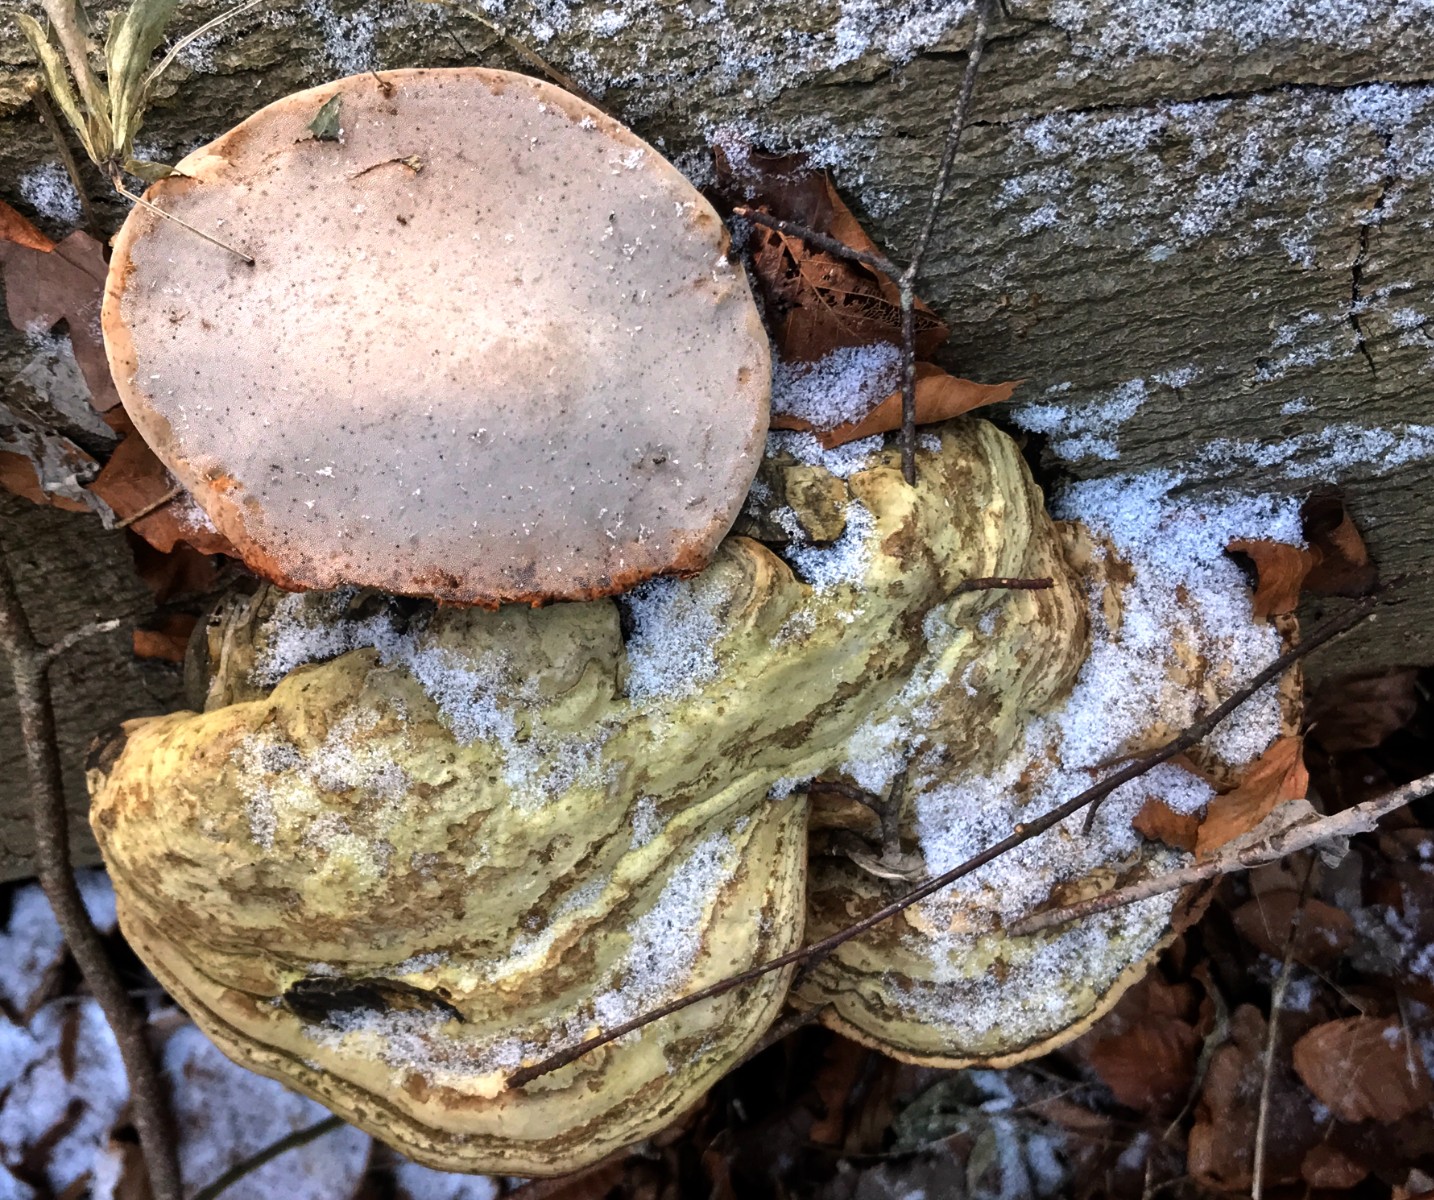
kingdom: Fungi
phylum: Basidiomycota
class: Agaricomycetes
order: Polyporales
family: Polyporaceae
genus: Fomes
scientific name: Fomes fomentarius
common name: tøndersvamp
